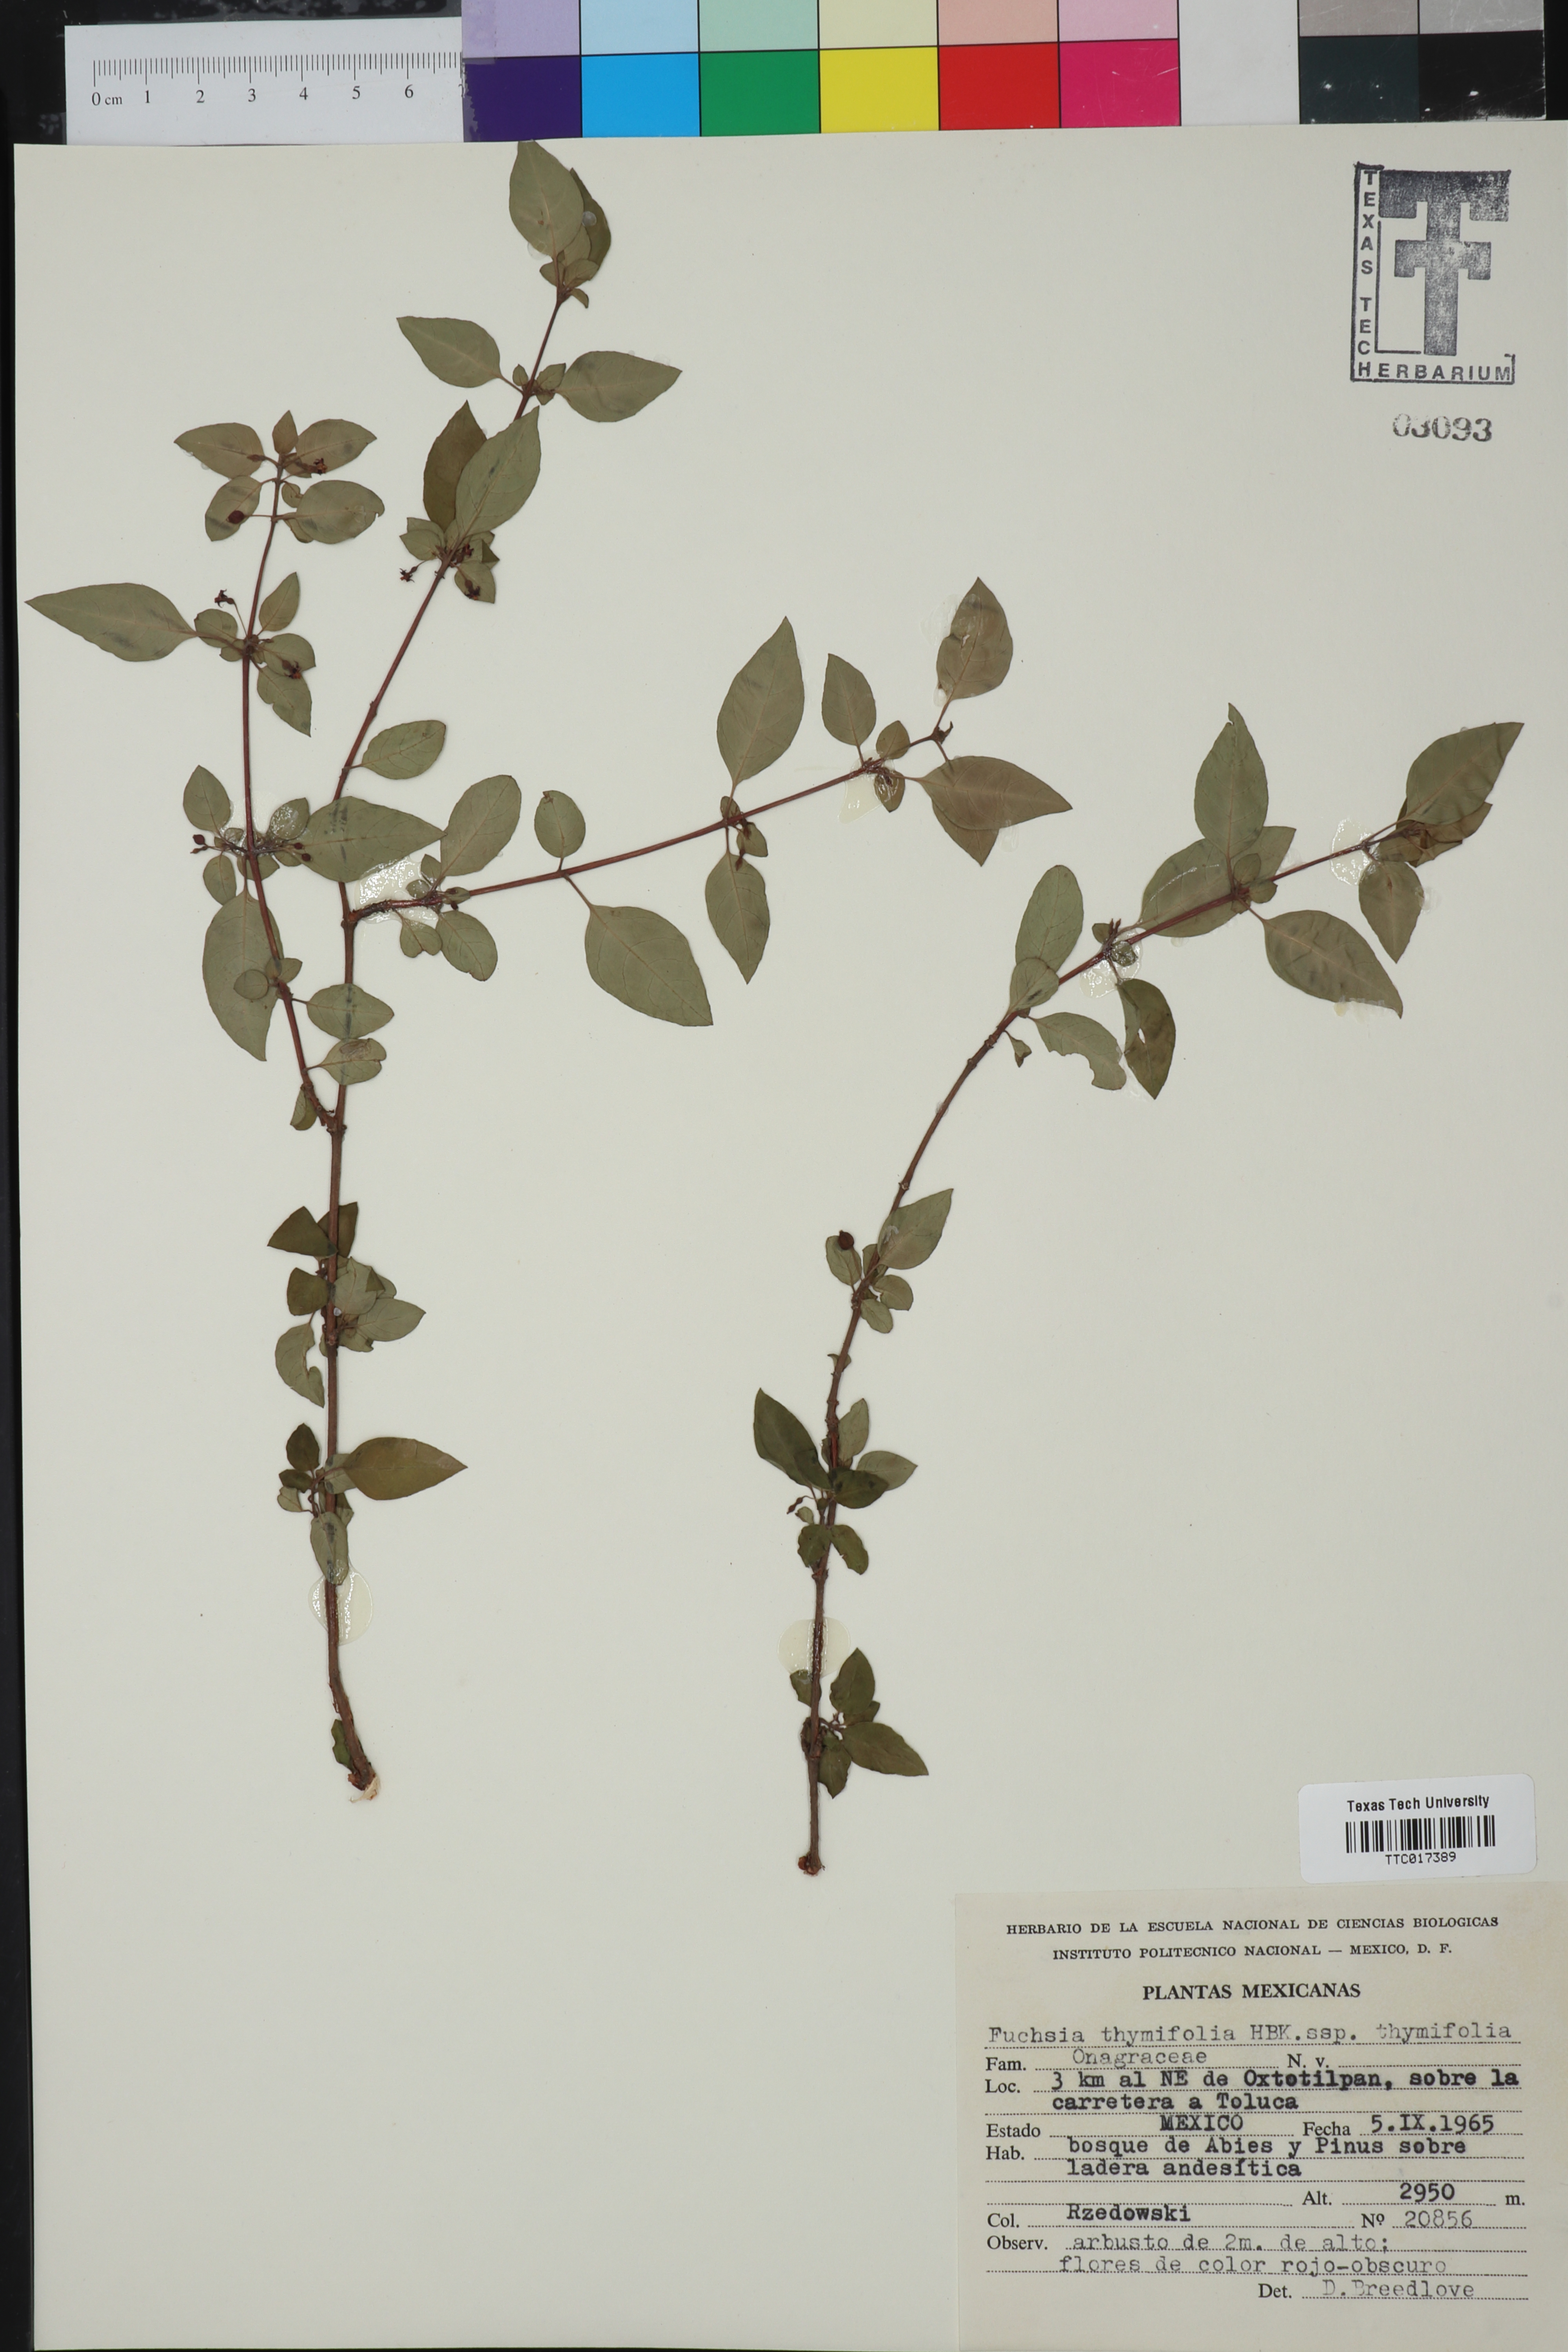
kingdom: Plantae
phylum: Tracheophyta
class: Magnoliopsida
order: Myrtales
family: Onagraceae
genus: Fuchsia
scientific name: Fuchsia thymifolia
